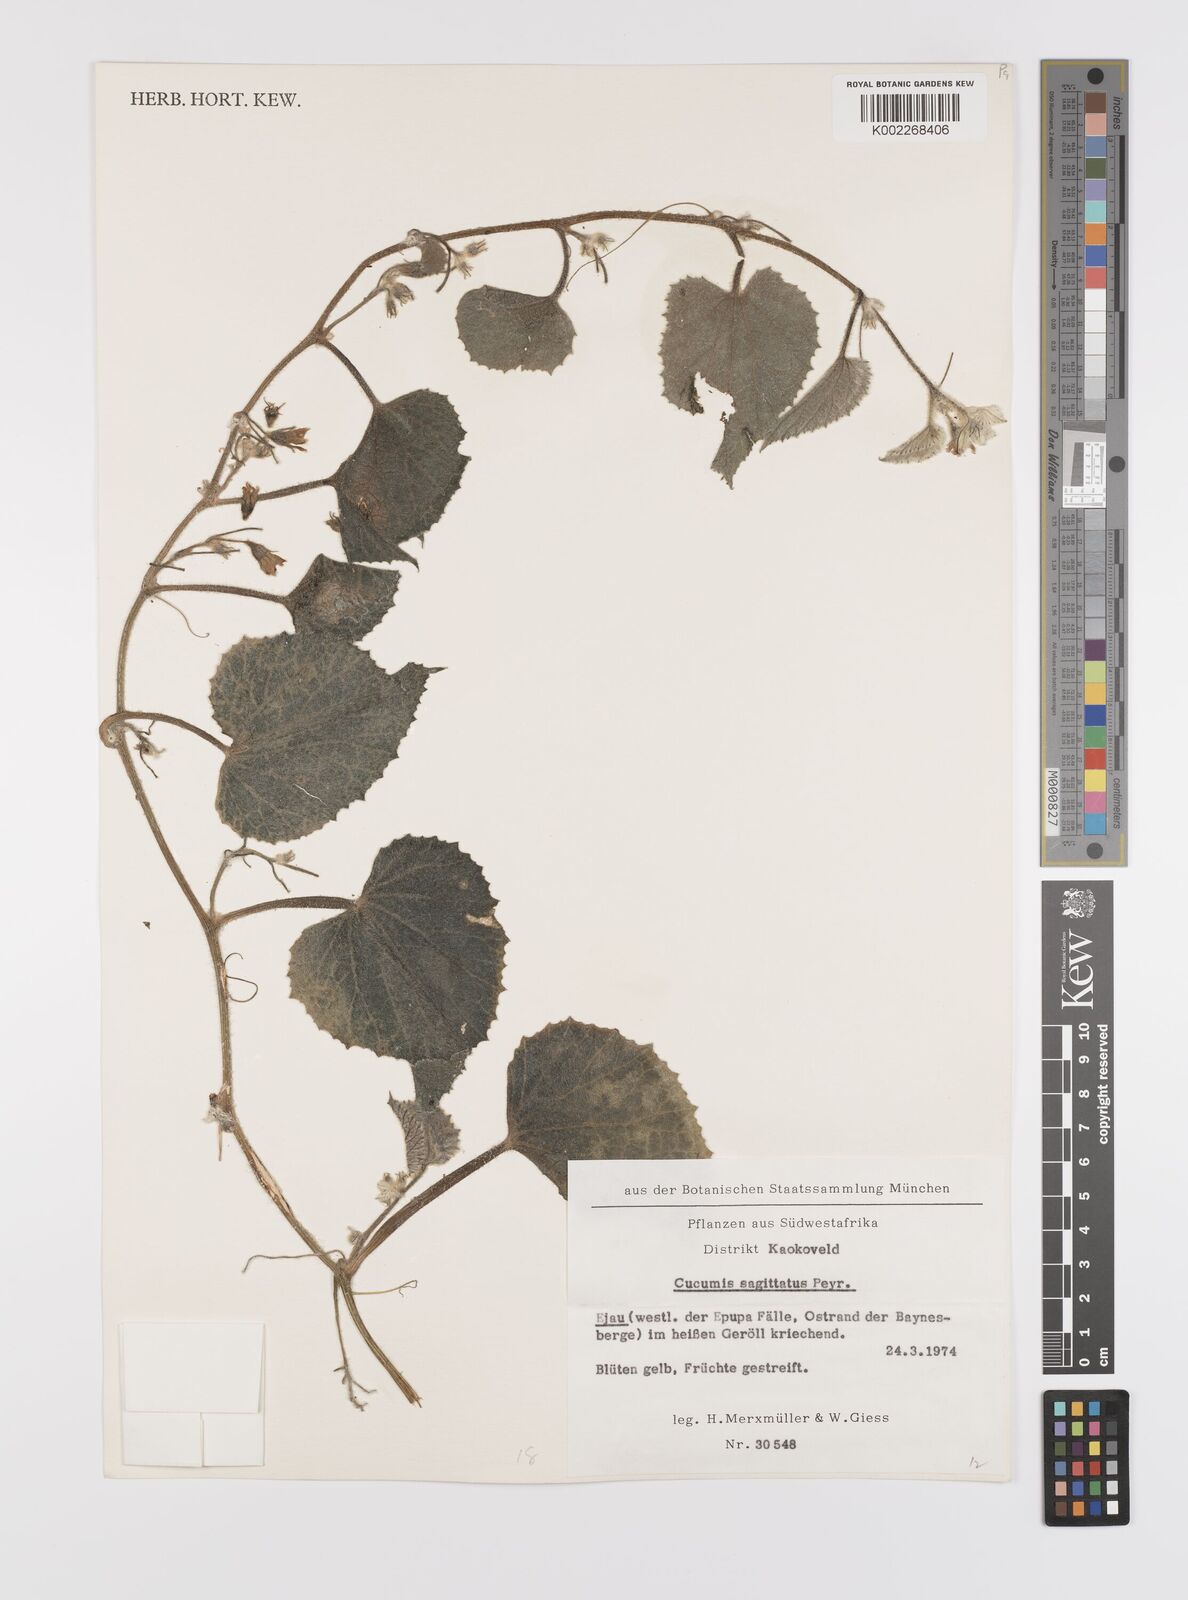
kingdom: Plantae
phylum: Tracheophyta
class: Magnoliopsida
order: Cucurbitales
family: Cucurbitaceae
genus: Cucumis
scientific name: Cucumis sagittatus
